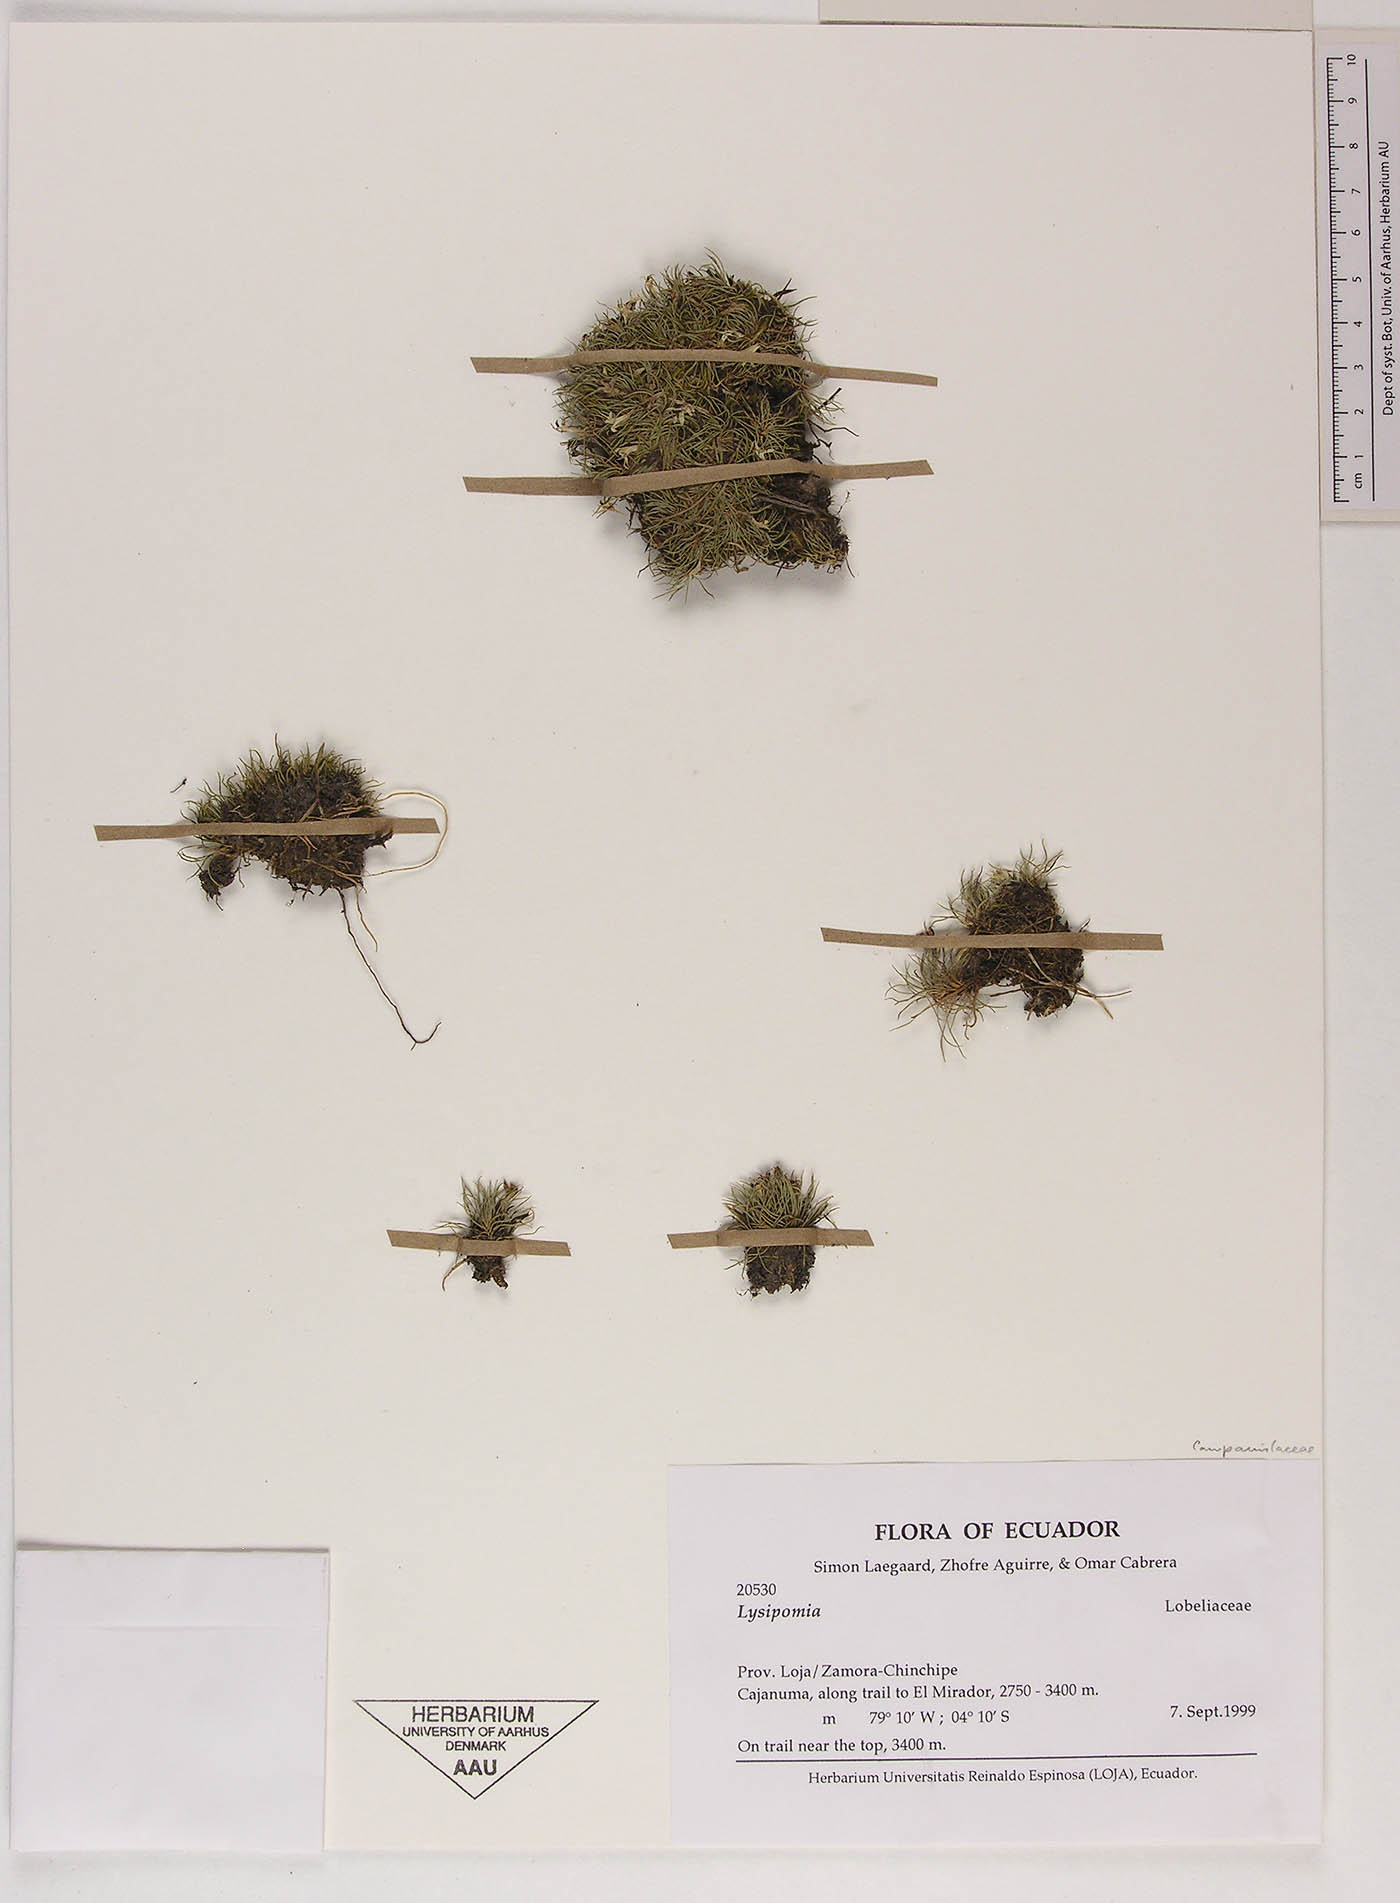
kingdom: Plantae
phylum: Tracheophyta
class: Magnoliopsida
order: Asterales
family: Campanulaceae
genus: Lysipomia
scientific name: Lysipomia
